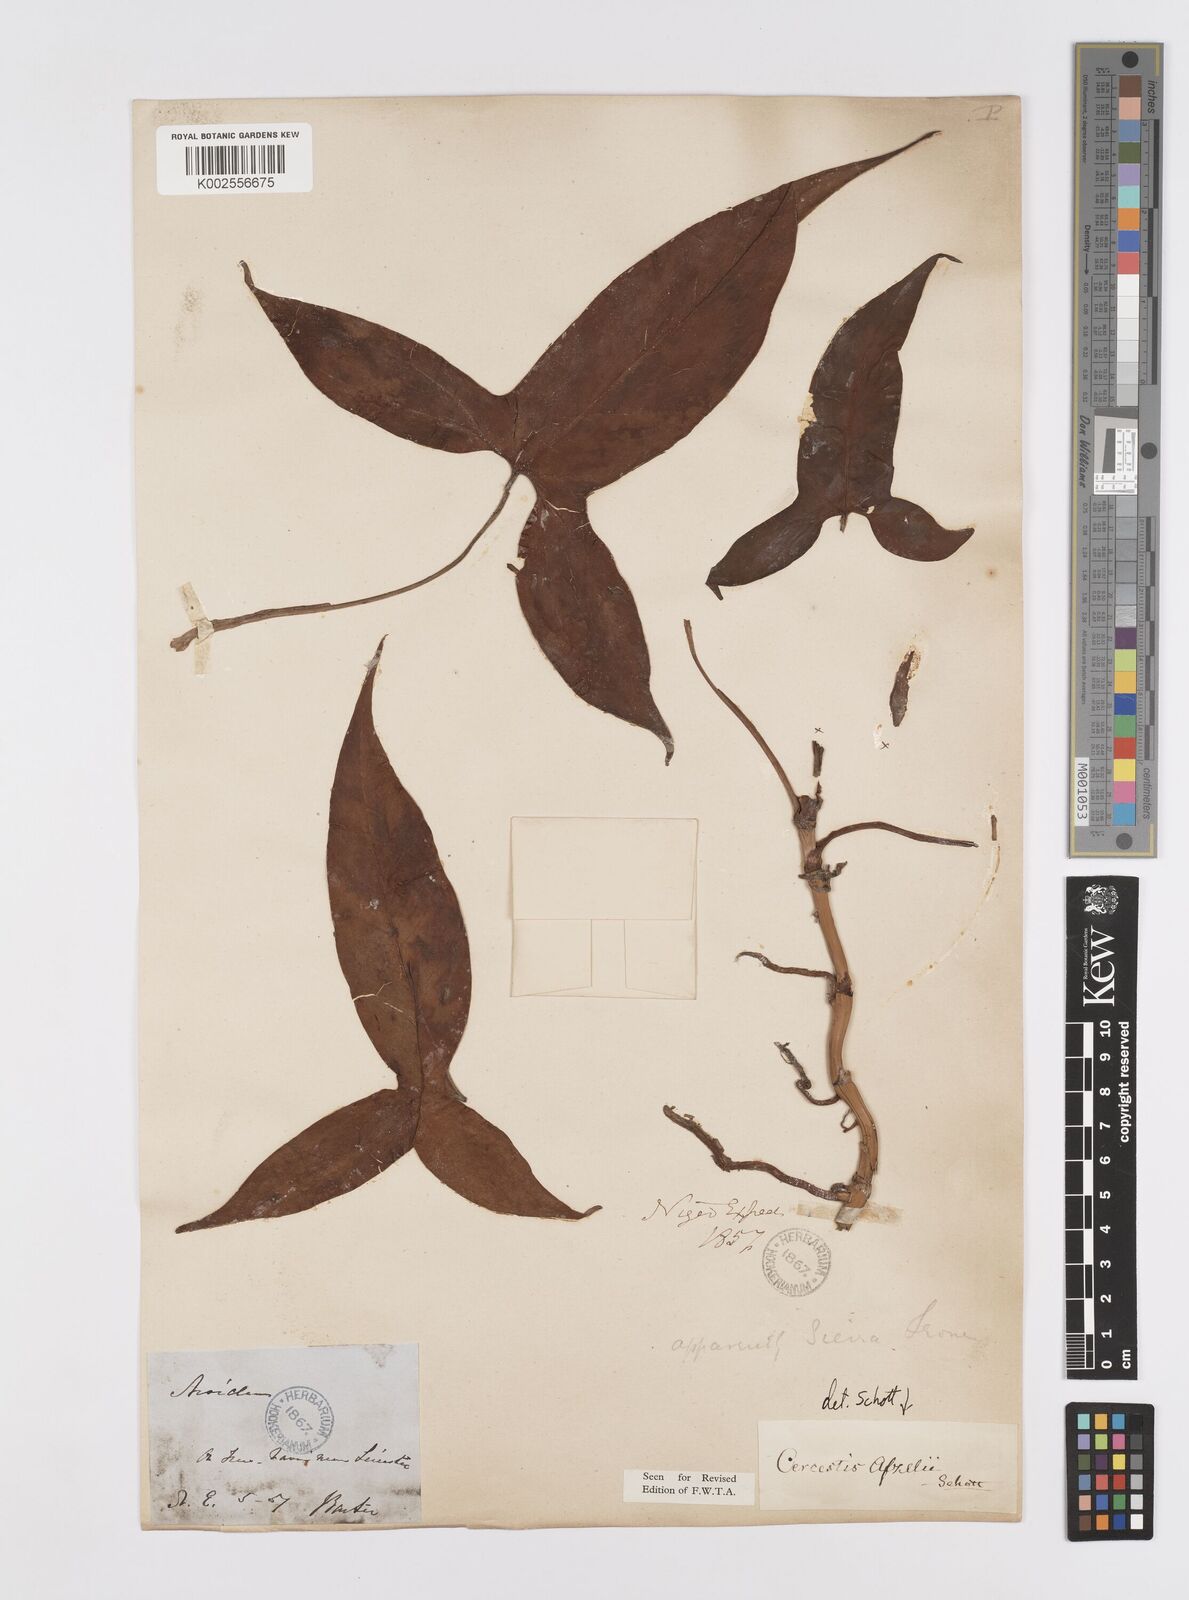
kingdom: Plantae
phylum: Tracheophyta
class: Liliopsida
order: Alismatales
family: Araceae
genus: Cercestis
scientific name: Cercestis afzelii
